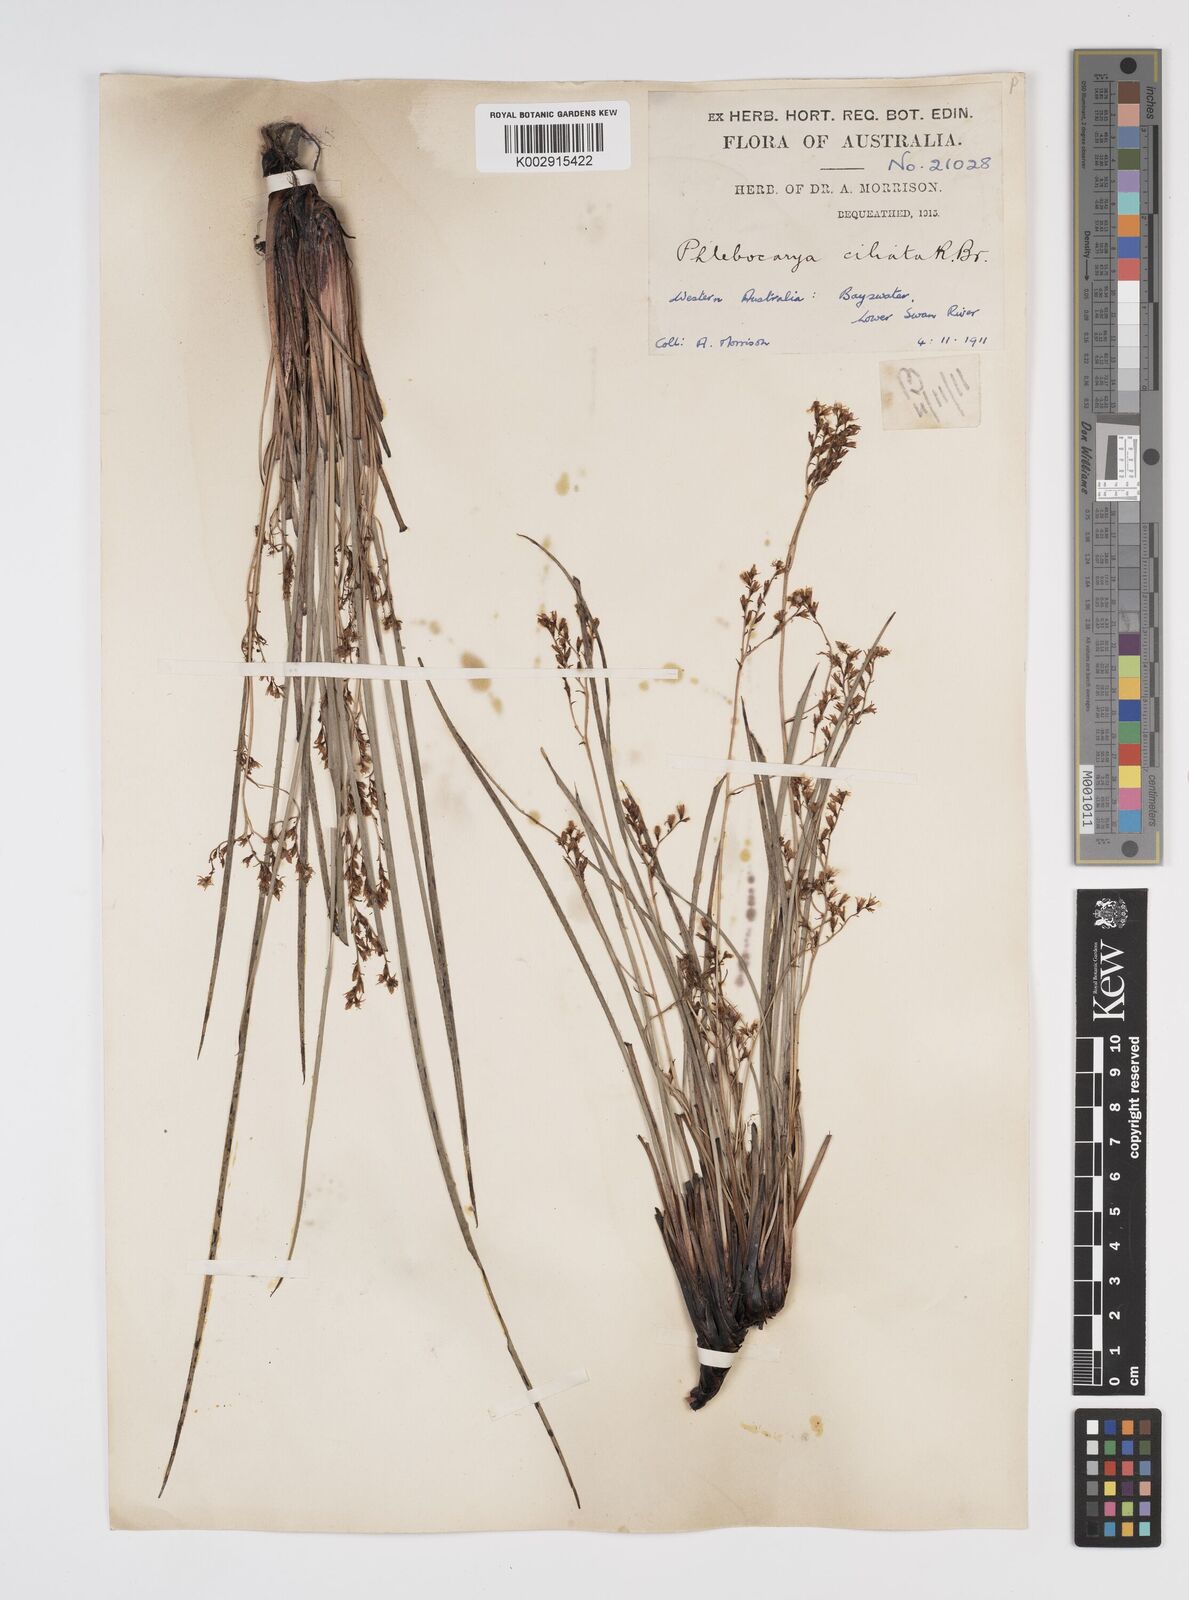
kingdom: Plantae
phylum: Tracheophyta
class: Liliopsida
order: Commelinales
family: Haemodoraceae
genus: Phlebocarya
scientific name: Phlebocarya ciliata
